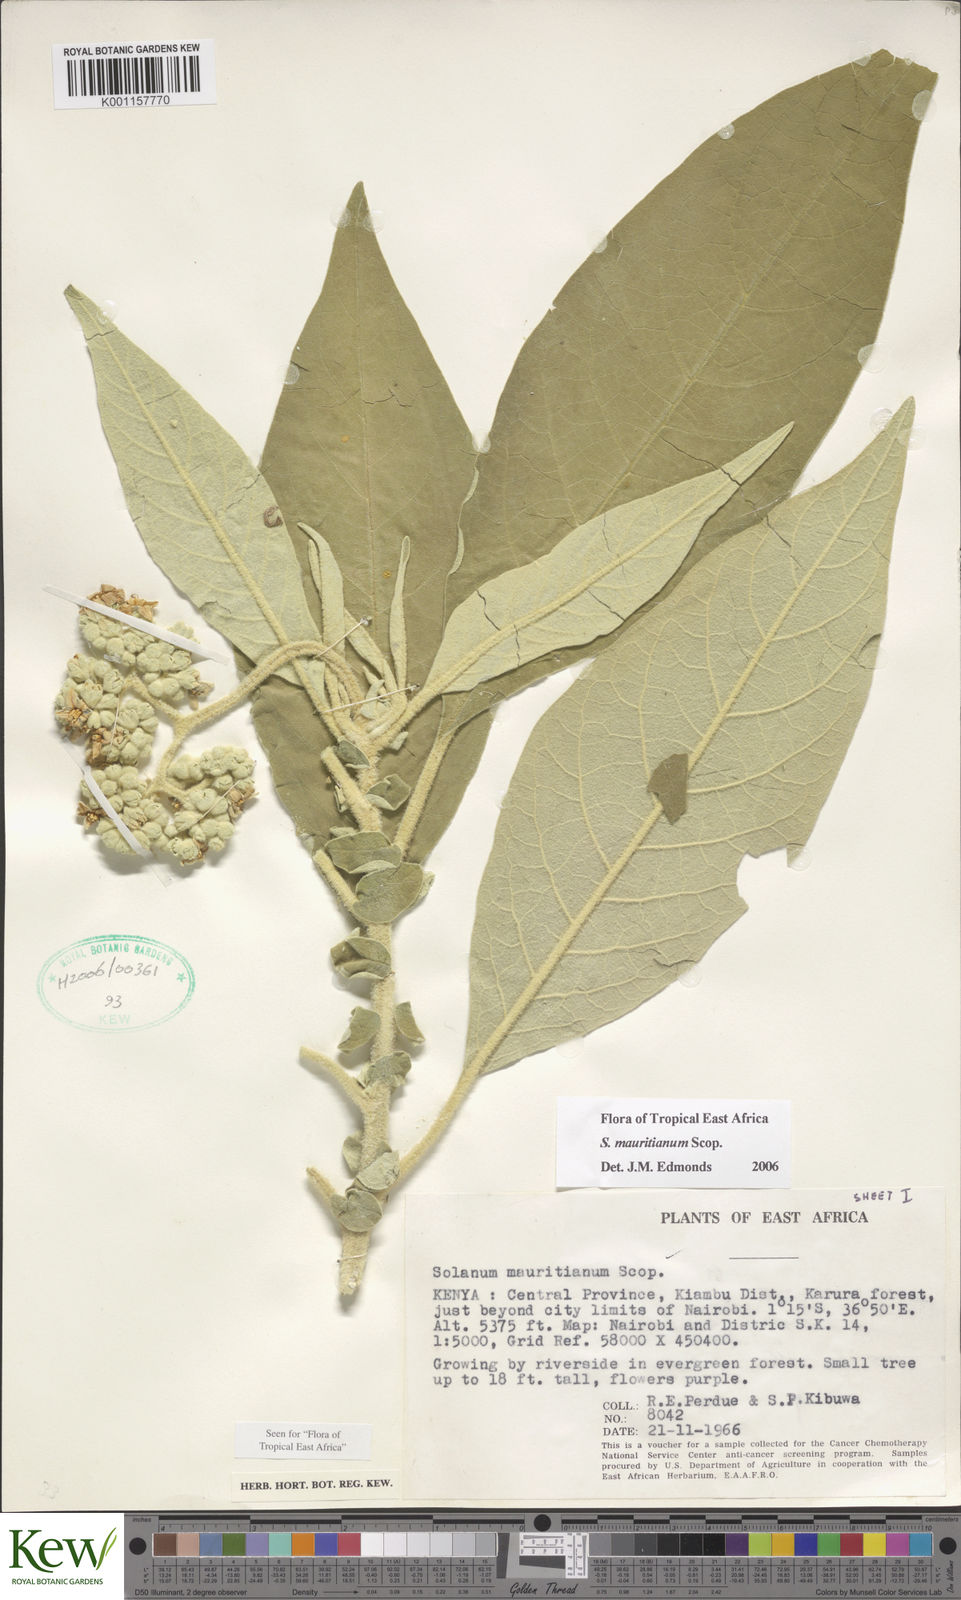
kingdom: Plantae
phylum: Tracheophyta
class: Magnoliopsida
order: Solanales
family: Solanaceae
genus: Solanum
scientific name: Solanum mauritianum
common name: Earleaf nightshade
